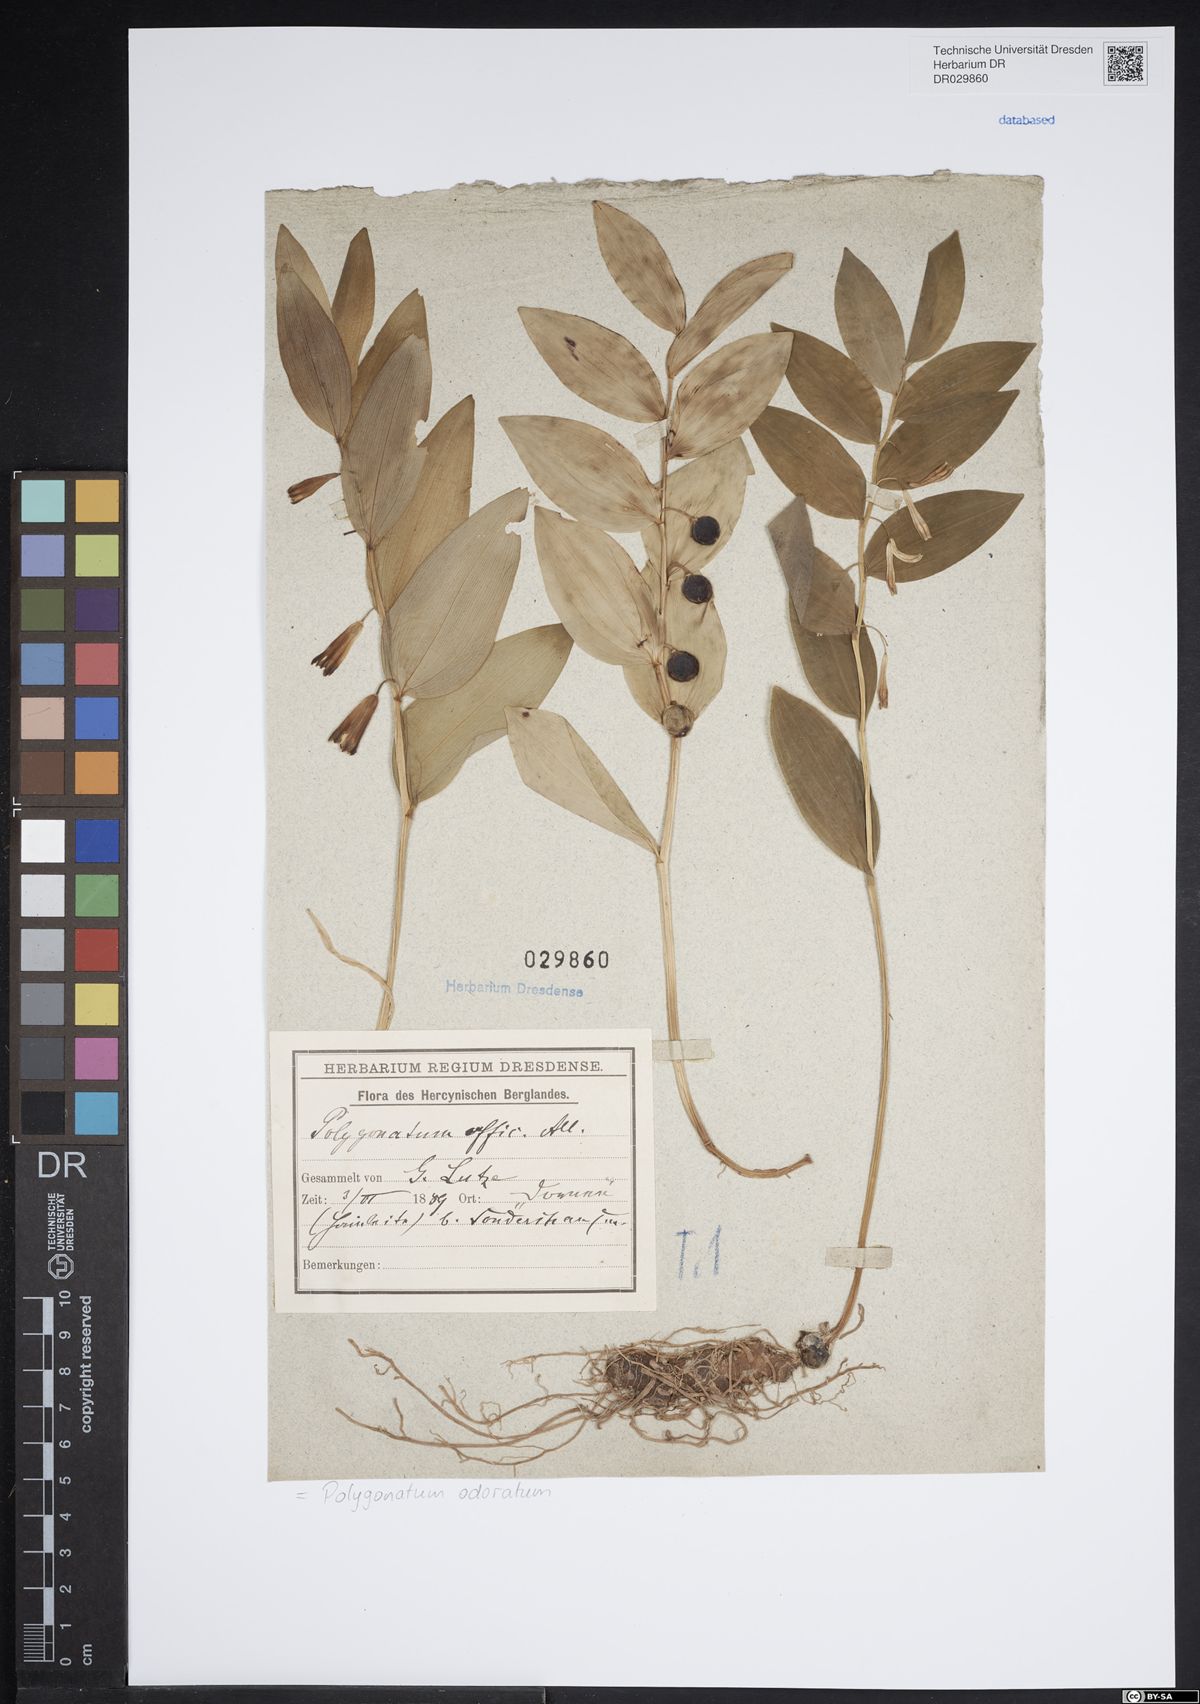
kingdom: Plantae
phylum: Tracheophyta
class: Liliopsida
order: Asparagales
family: Asparagaceae
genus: Polygonatum
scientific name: Polygonatum odoratum
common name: Angular solomon's-seal
